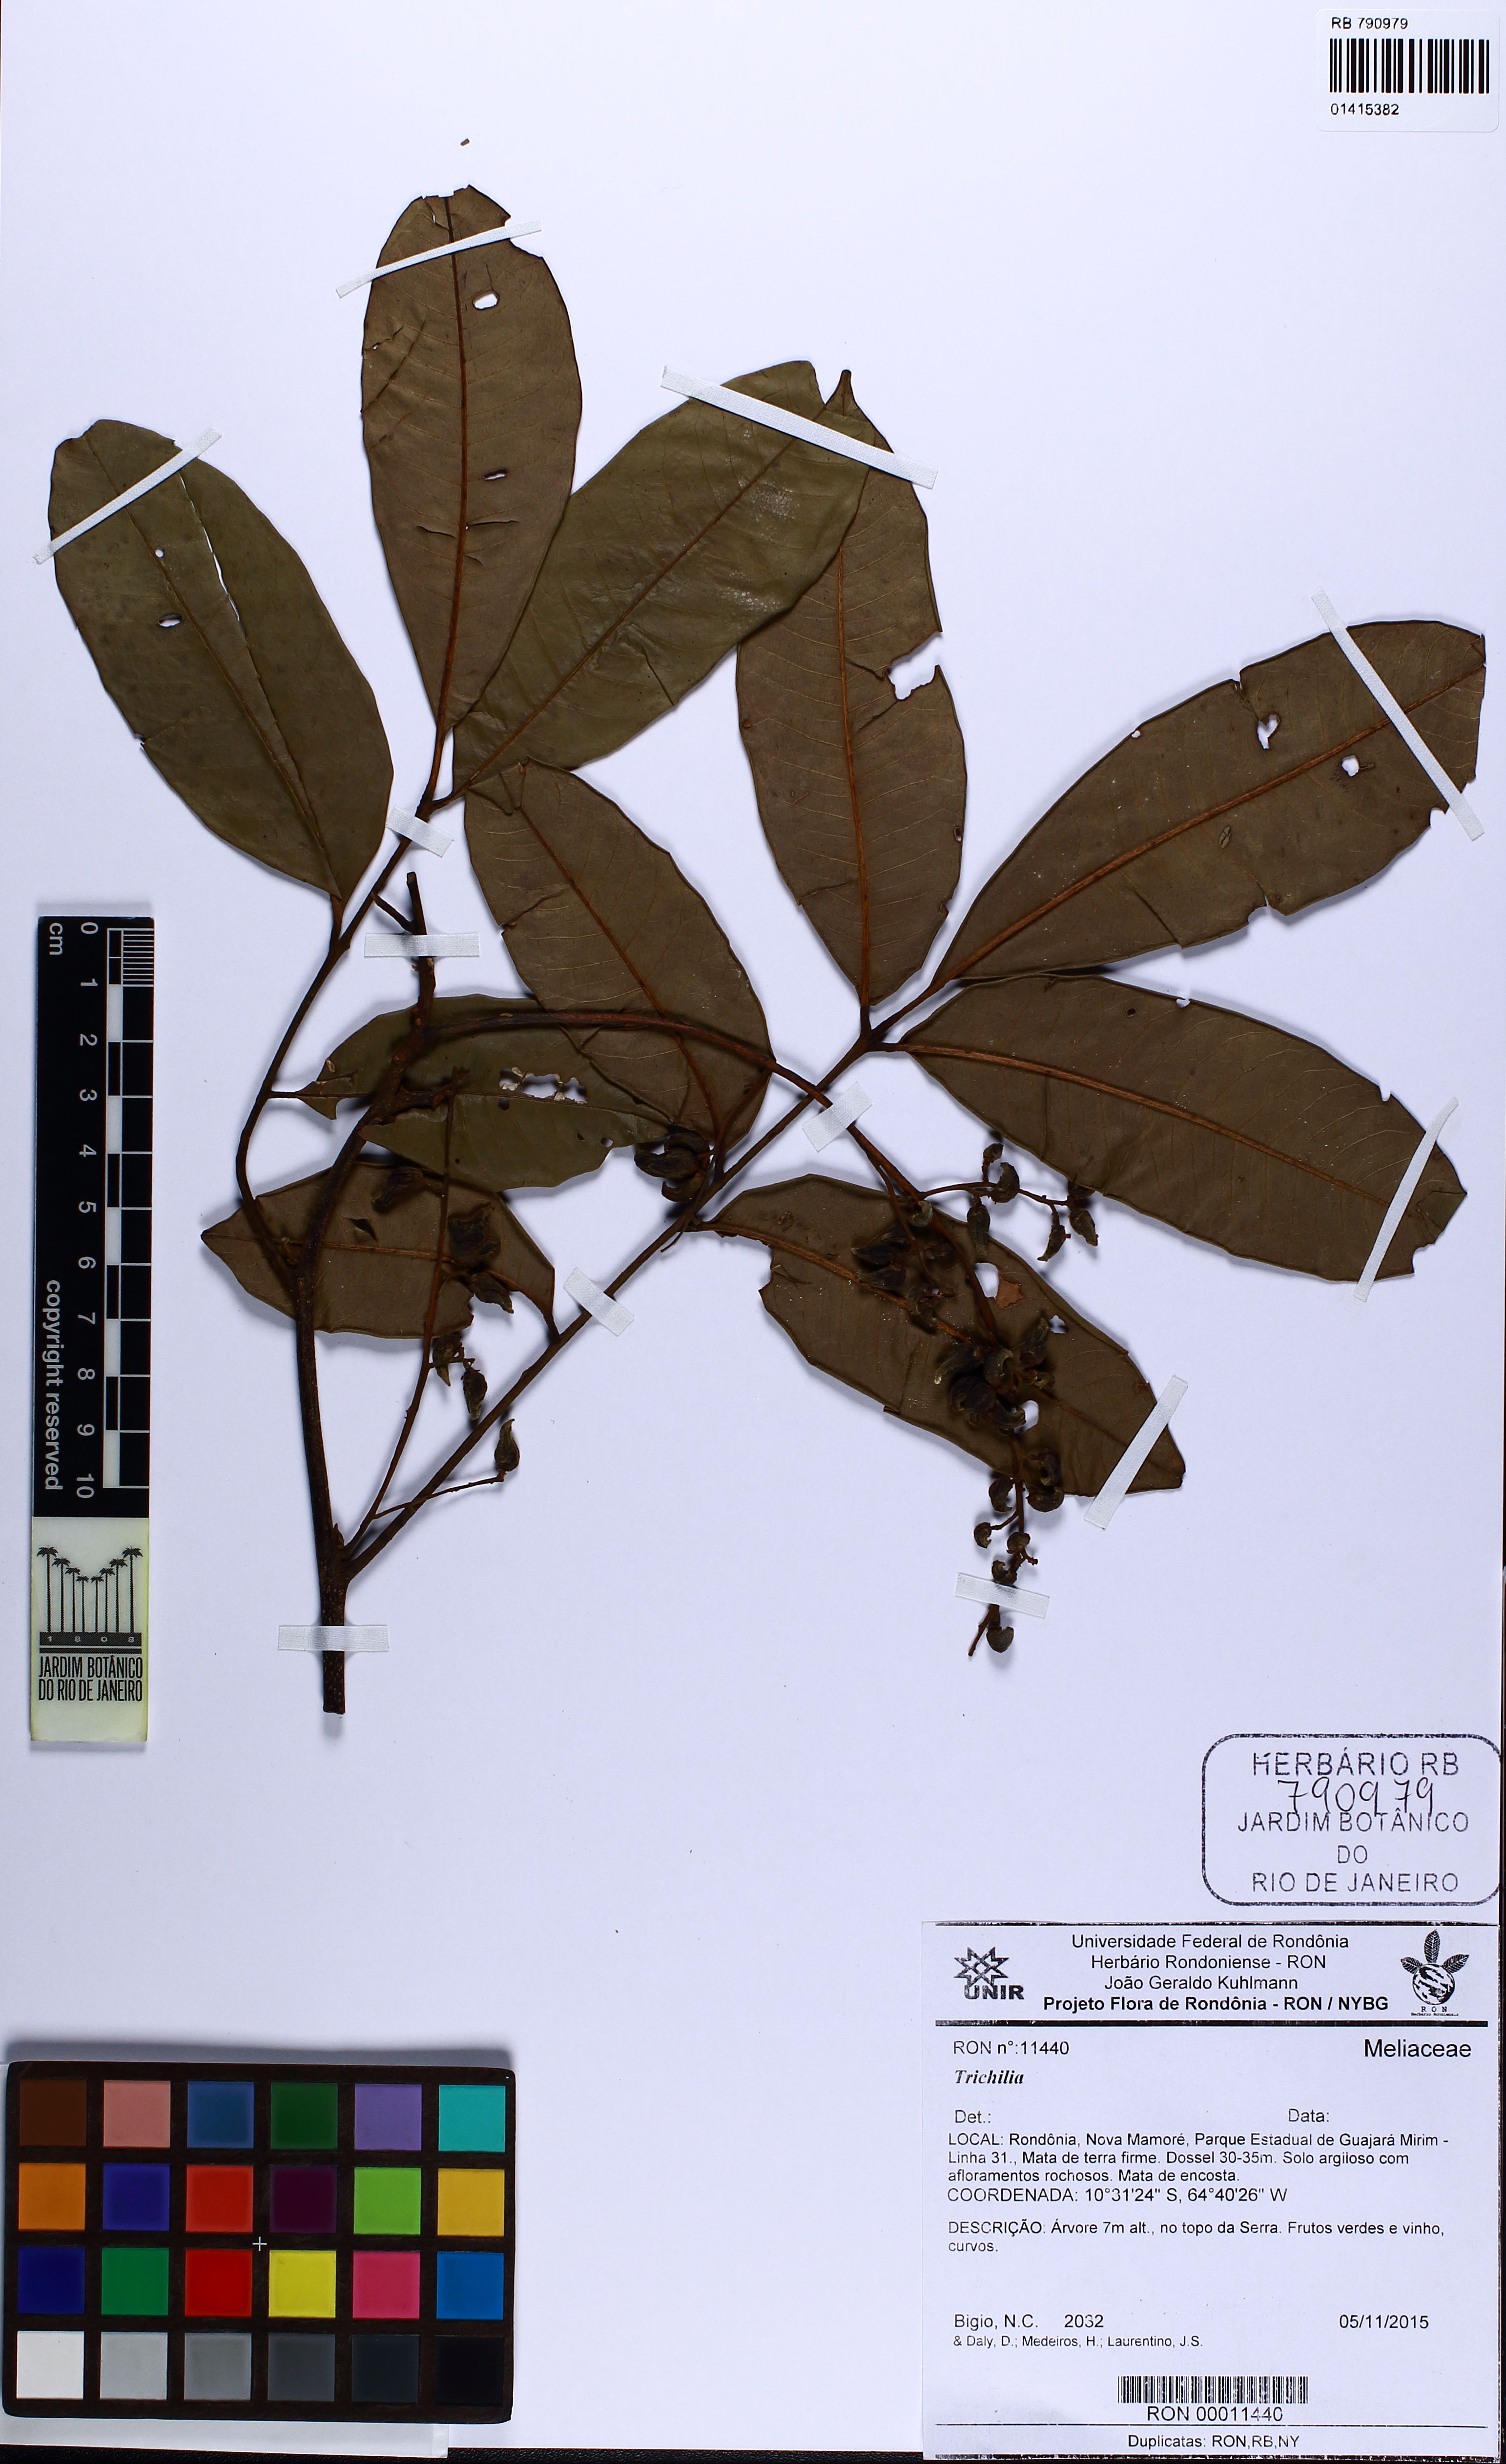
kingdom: Plantae
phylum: Tracheophyta
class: Magnoliopsida
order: Sapindales
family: Meliaceae
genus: Trichilia
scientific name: Trichilia
